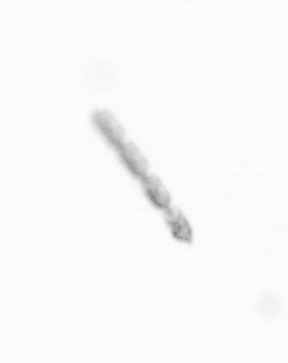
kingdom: Chromista
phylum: Ochrophyta
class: Bacillariophyceae
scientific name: Bacillariophyceae
